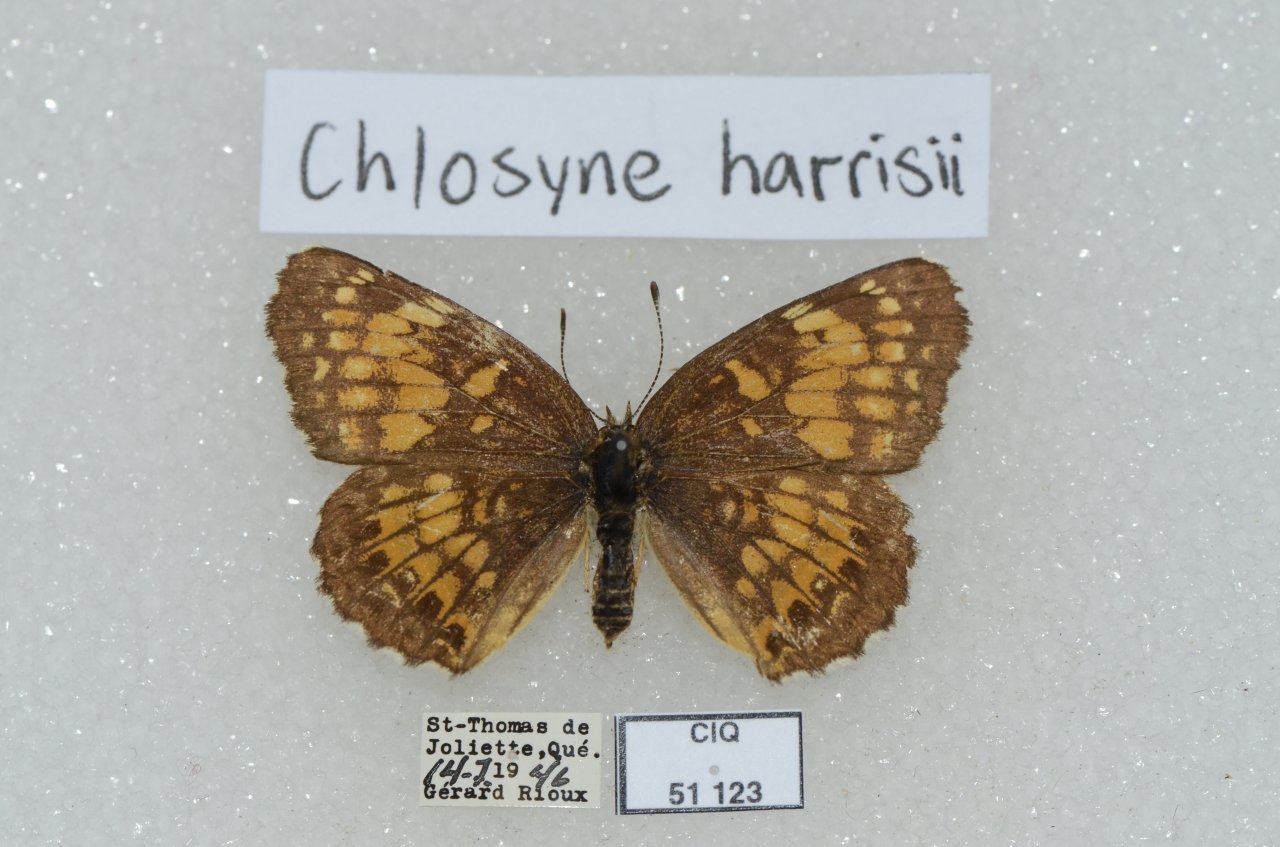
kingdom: Animalia
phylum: Arthropoda
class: Insecta
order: Lepidoptera
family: Nymphalidae
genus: Chlosyne
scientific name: Chlosyne harrisii
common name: Harris's Checkerspot
